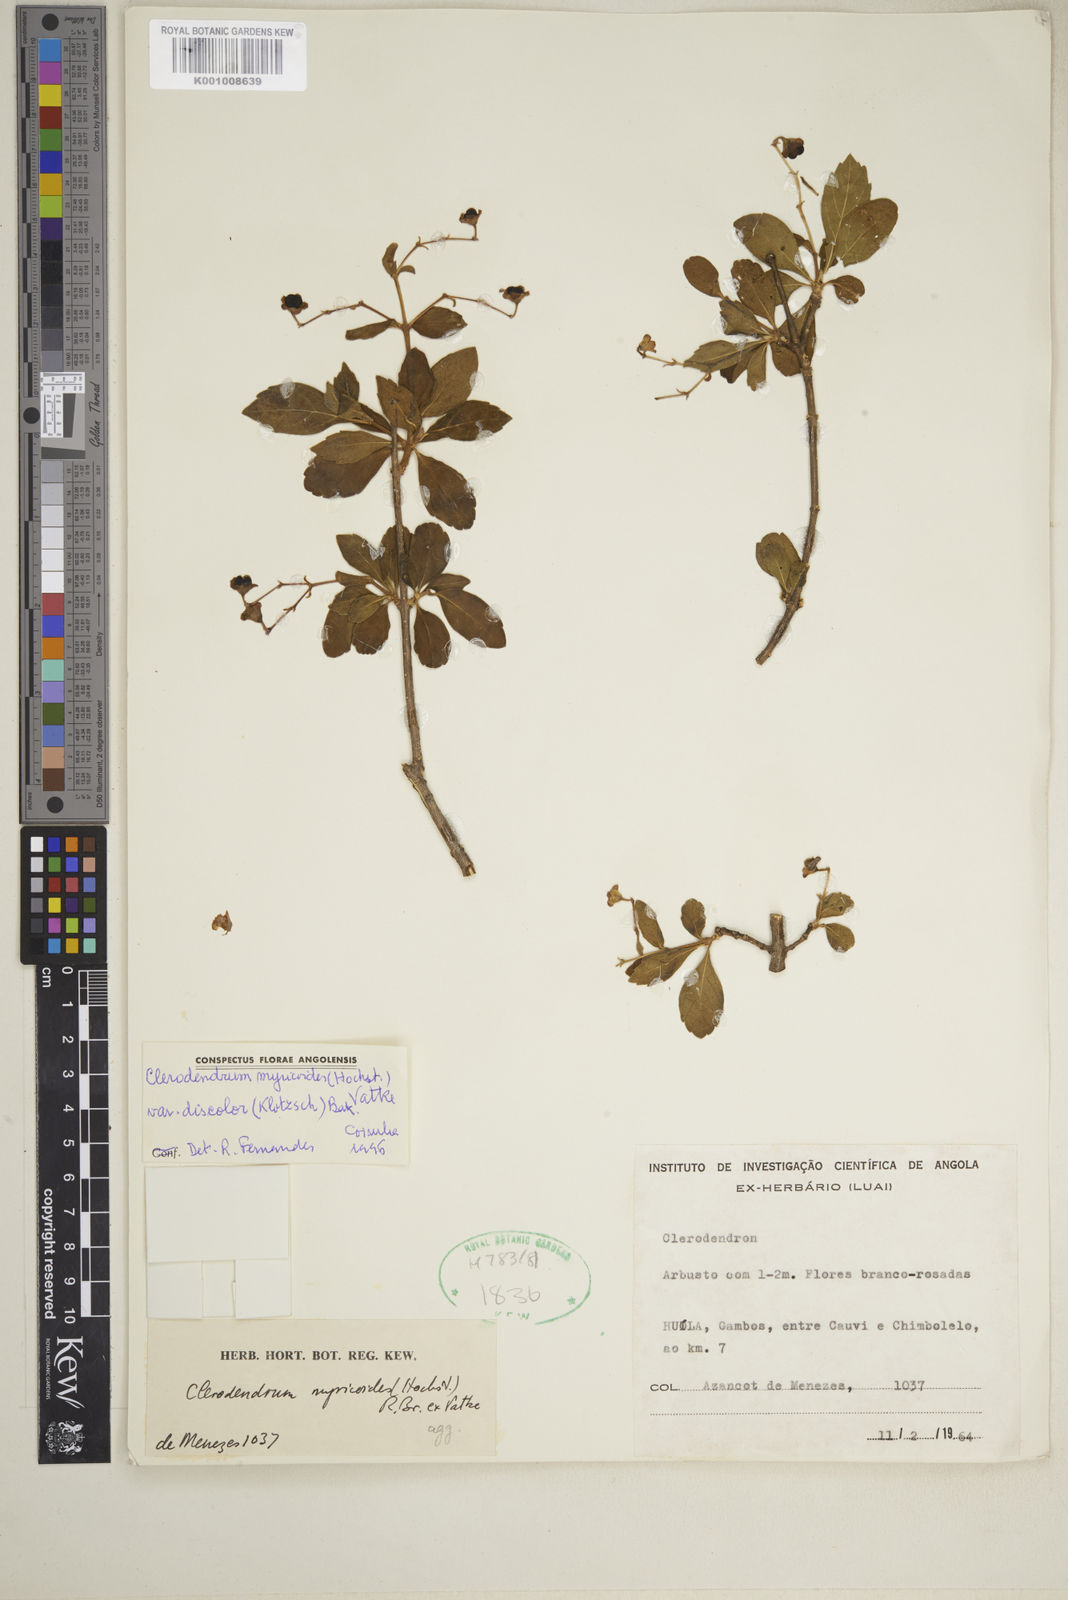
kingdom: Plantae
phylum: Tracheophyta
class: Magnoliopsida
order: Lamiales
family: Lamiaceae
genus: Rotheca
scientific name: Rotheca myricoides
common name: Cats-whiskers
